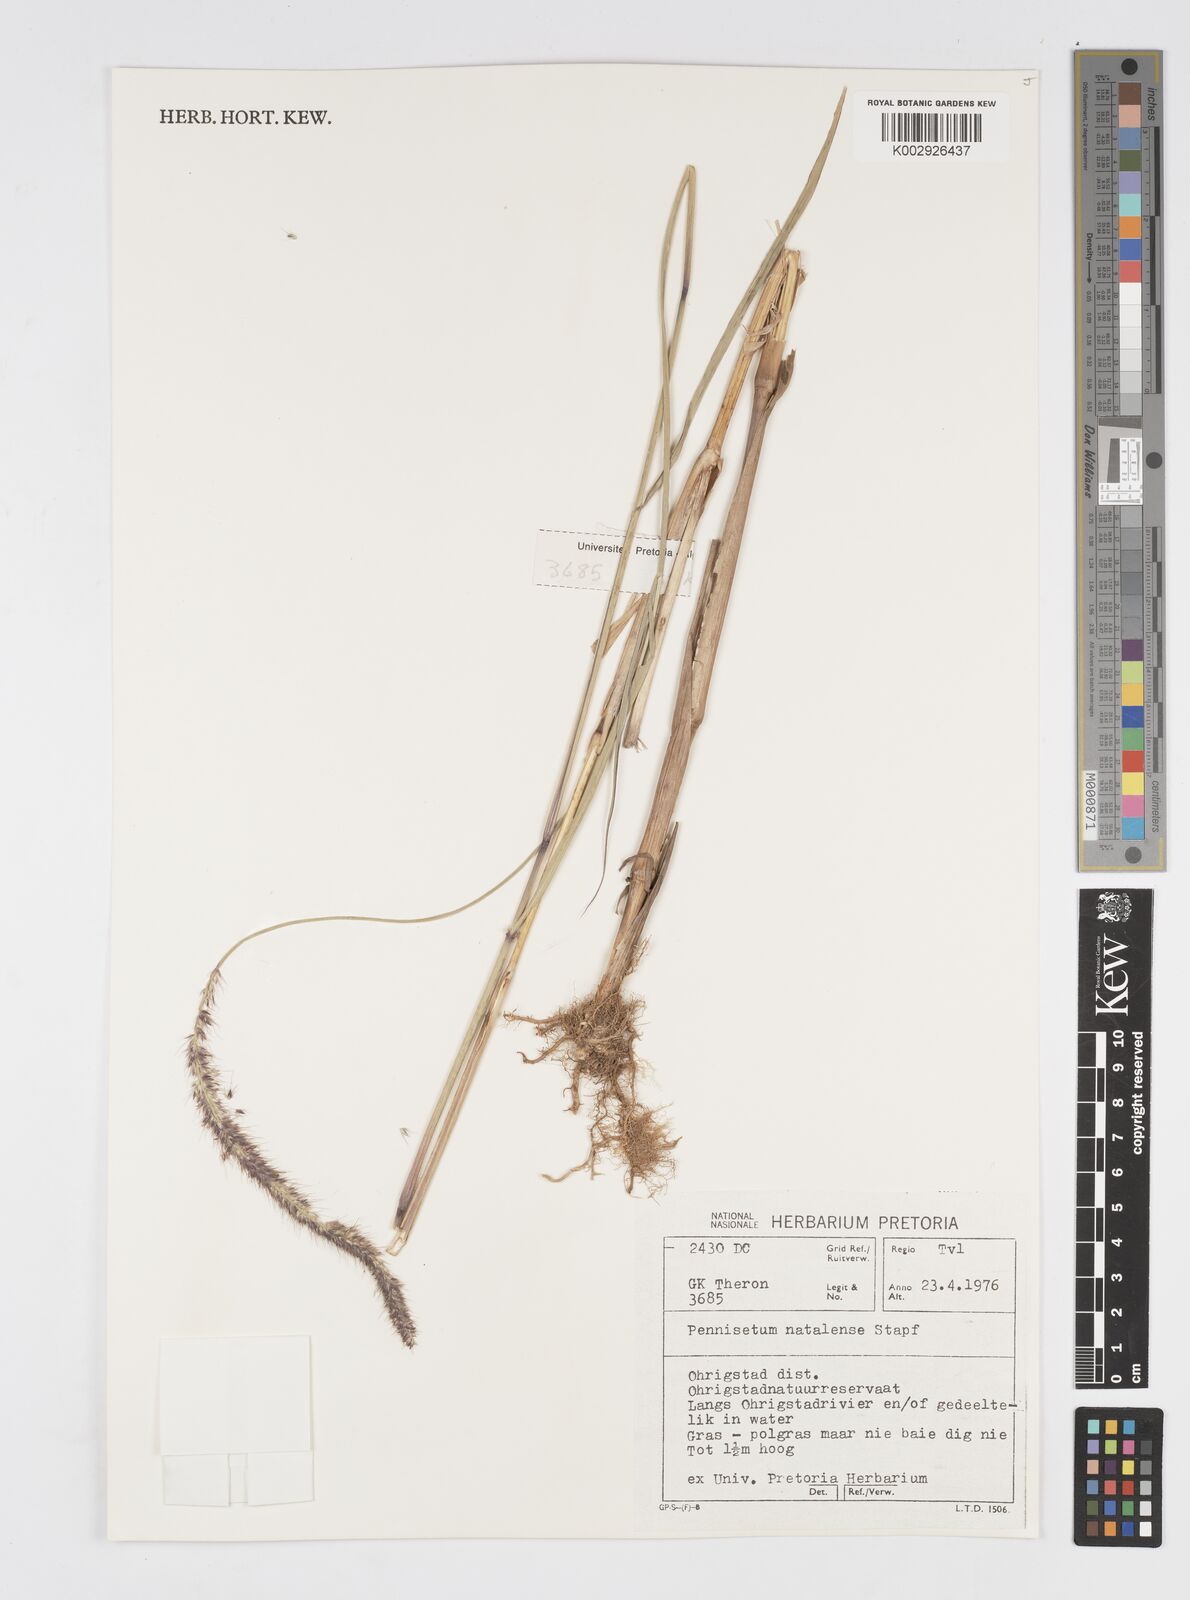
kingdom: Plantae
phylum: Tracheophyta
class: Liliopsida
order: Poales
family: Poaceae
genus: Cenchrus
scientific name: Cenchrus caudatus
